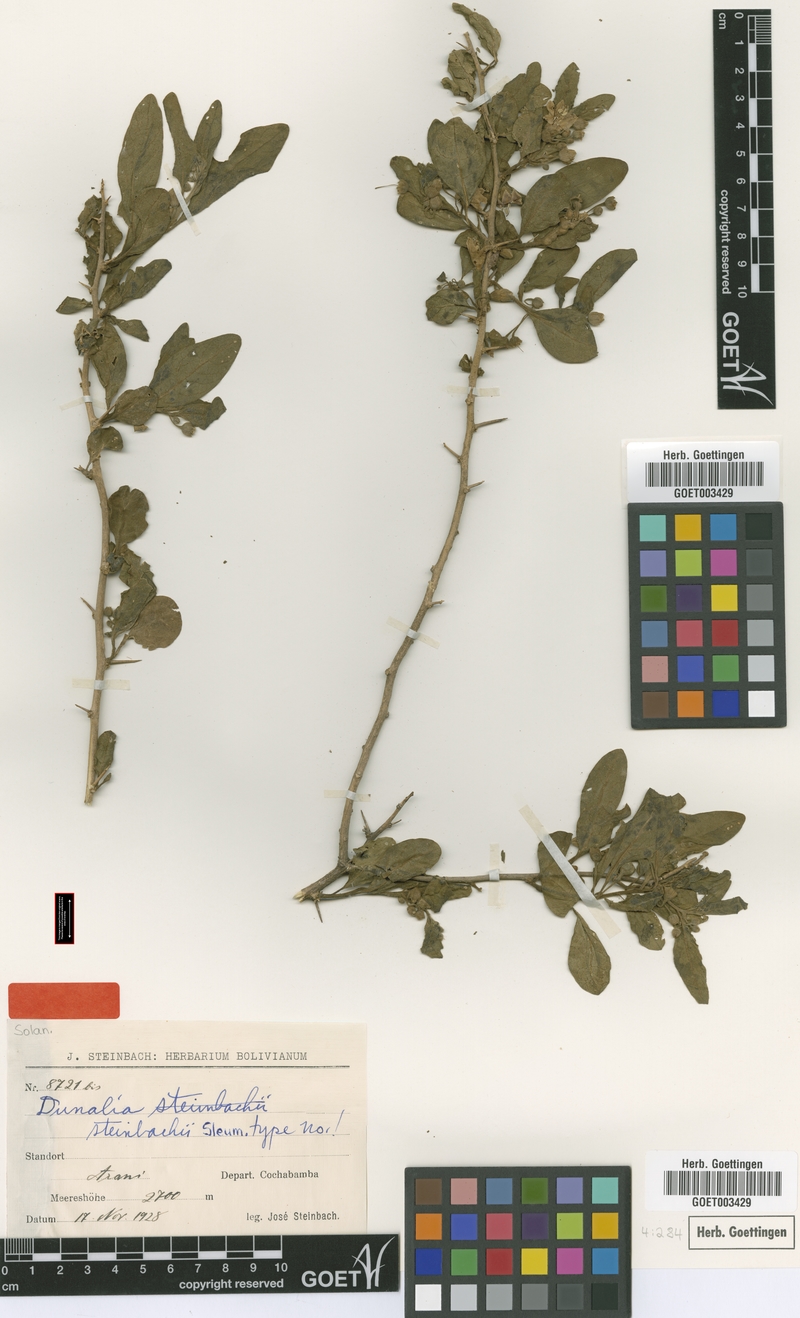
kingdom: Plantae
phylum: Tracheophyta
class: Magnoliopsida
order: Solanales
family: Solanaceae
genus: Eriolarynx
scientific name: Eriolarynx fasciculata
